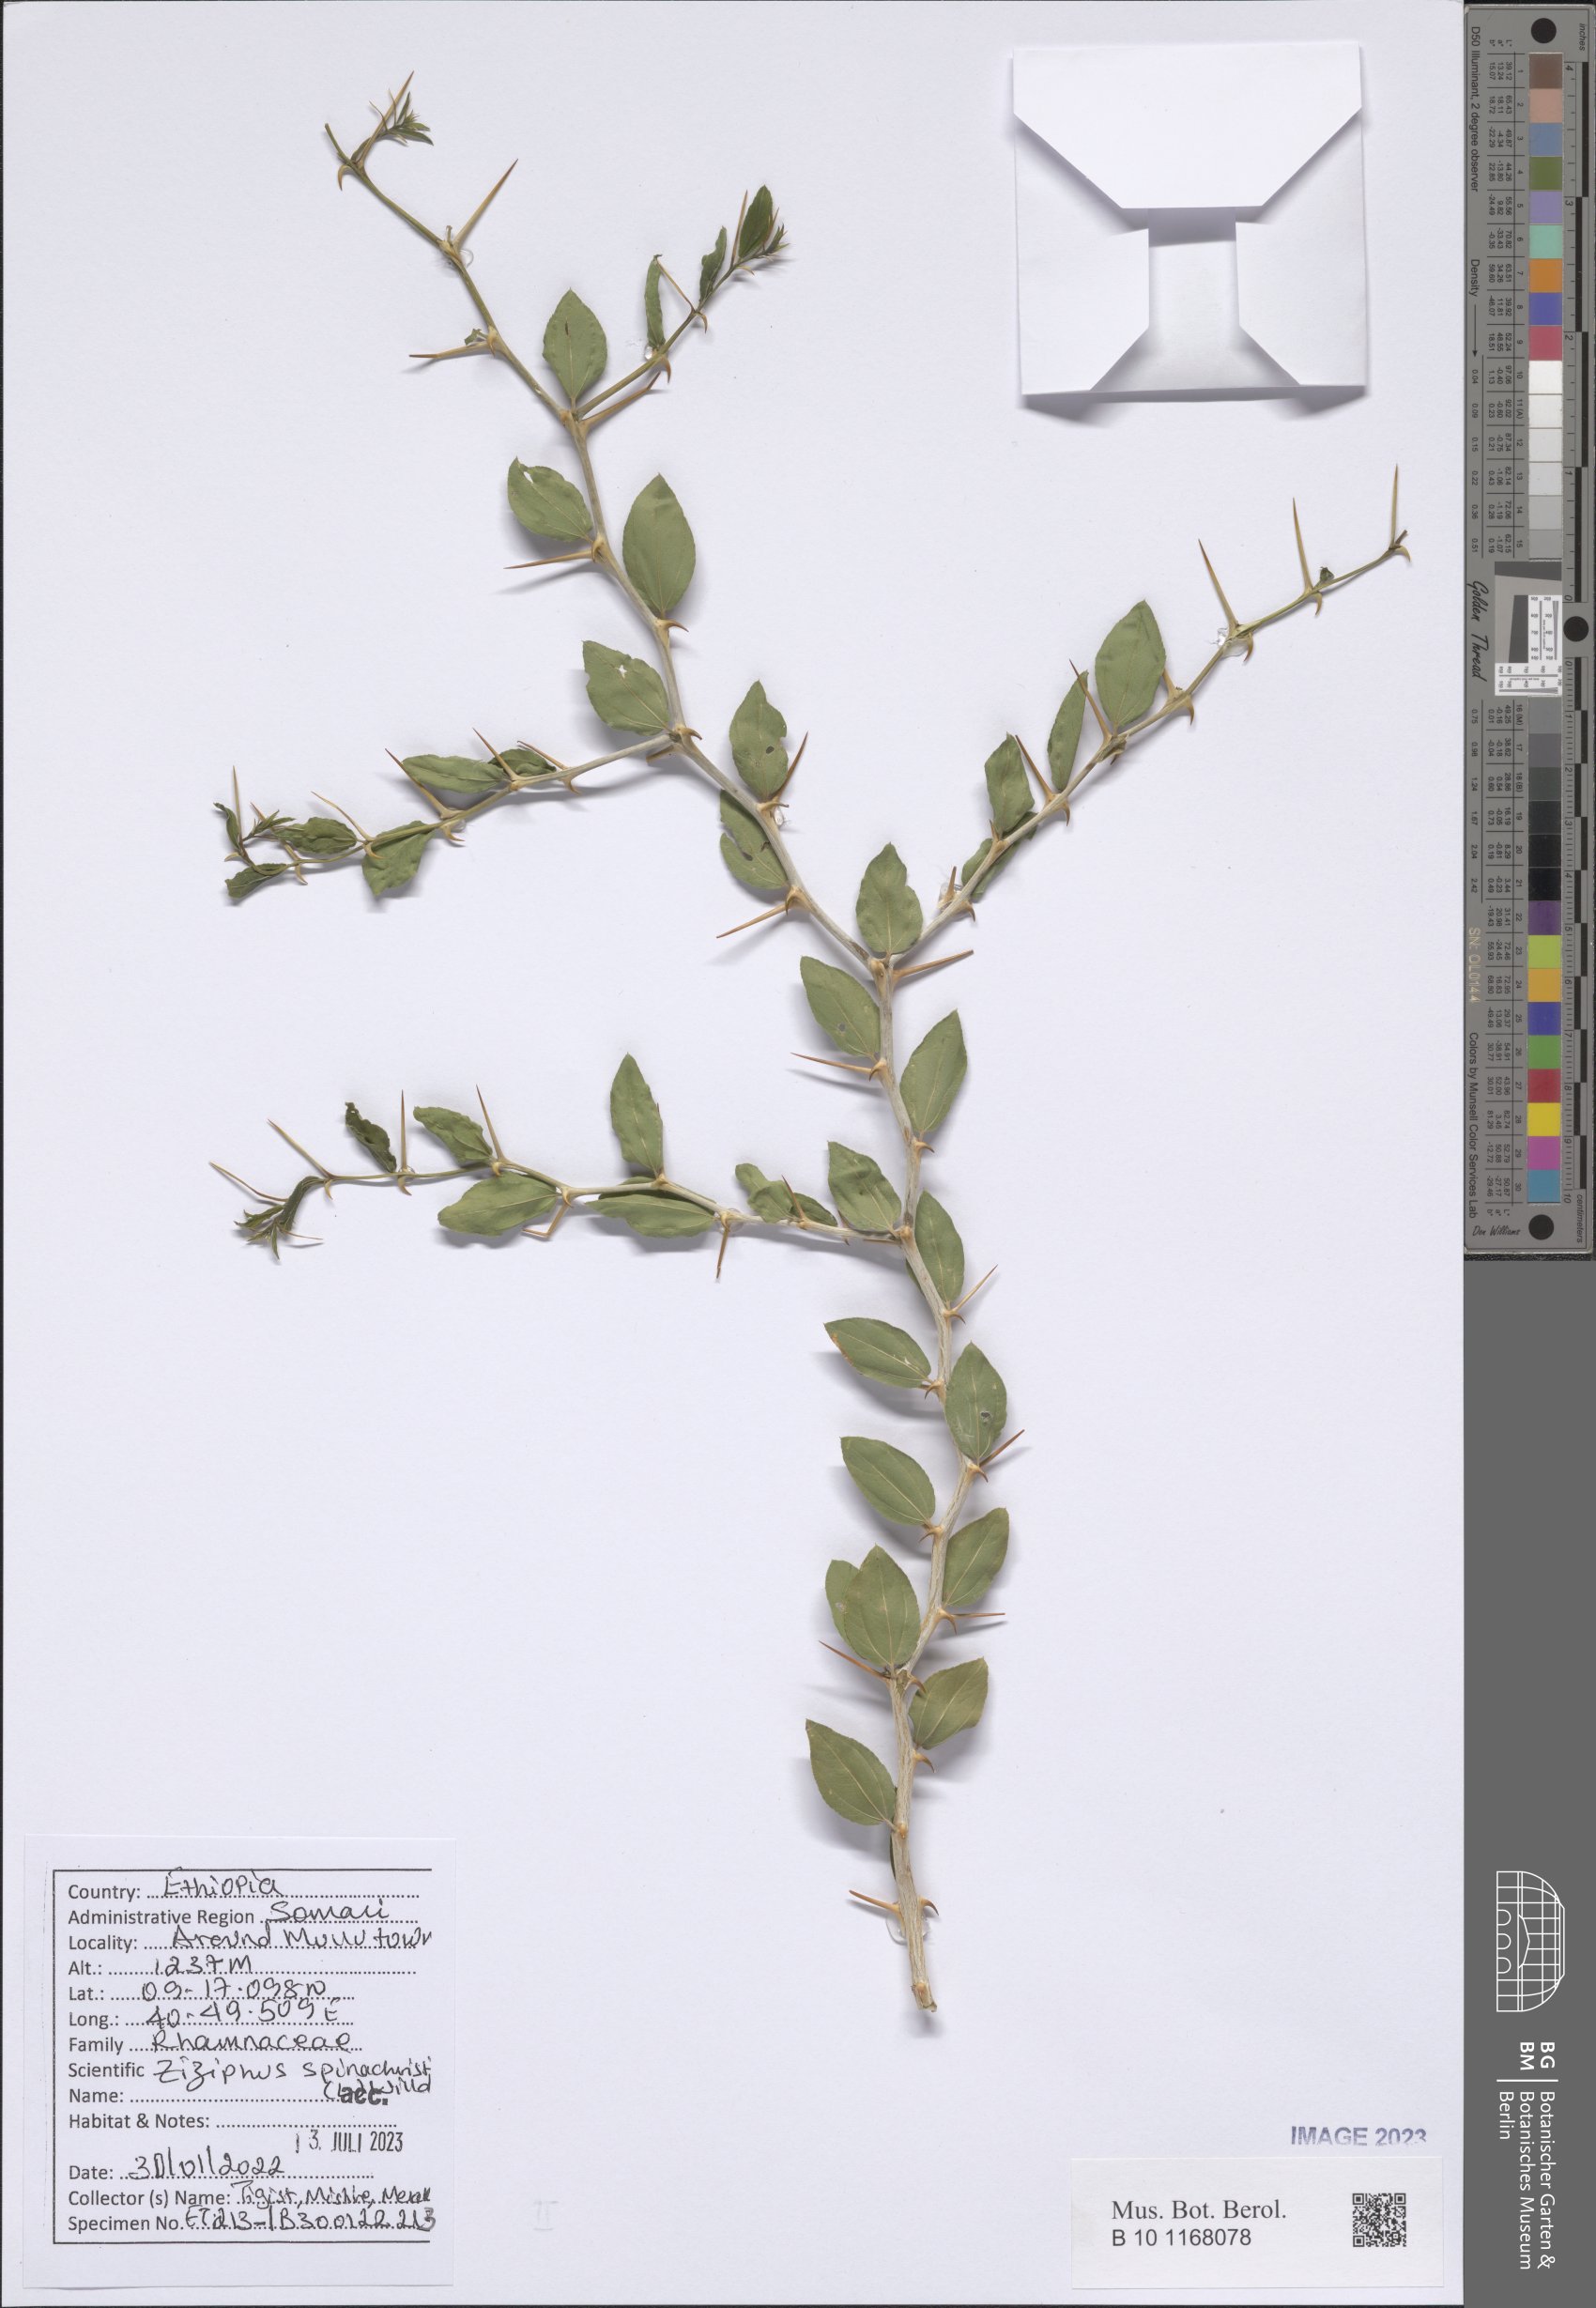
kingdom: Plantae
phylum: Tracheophyta
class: Magnoliopsida
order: Rosales
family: Rhamnaceae
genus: Ziziphus
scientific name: Ziziphus spina-christi
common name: Syrian christ-thorn
